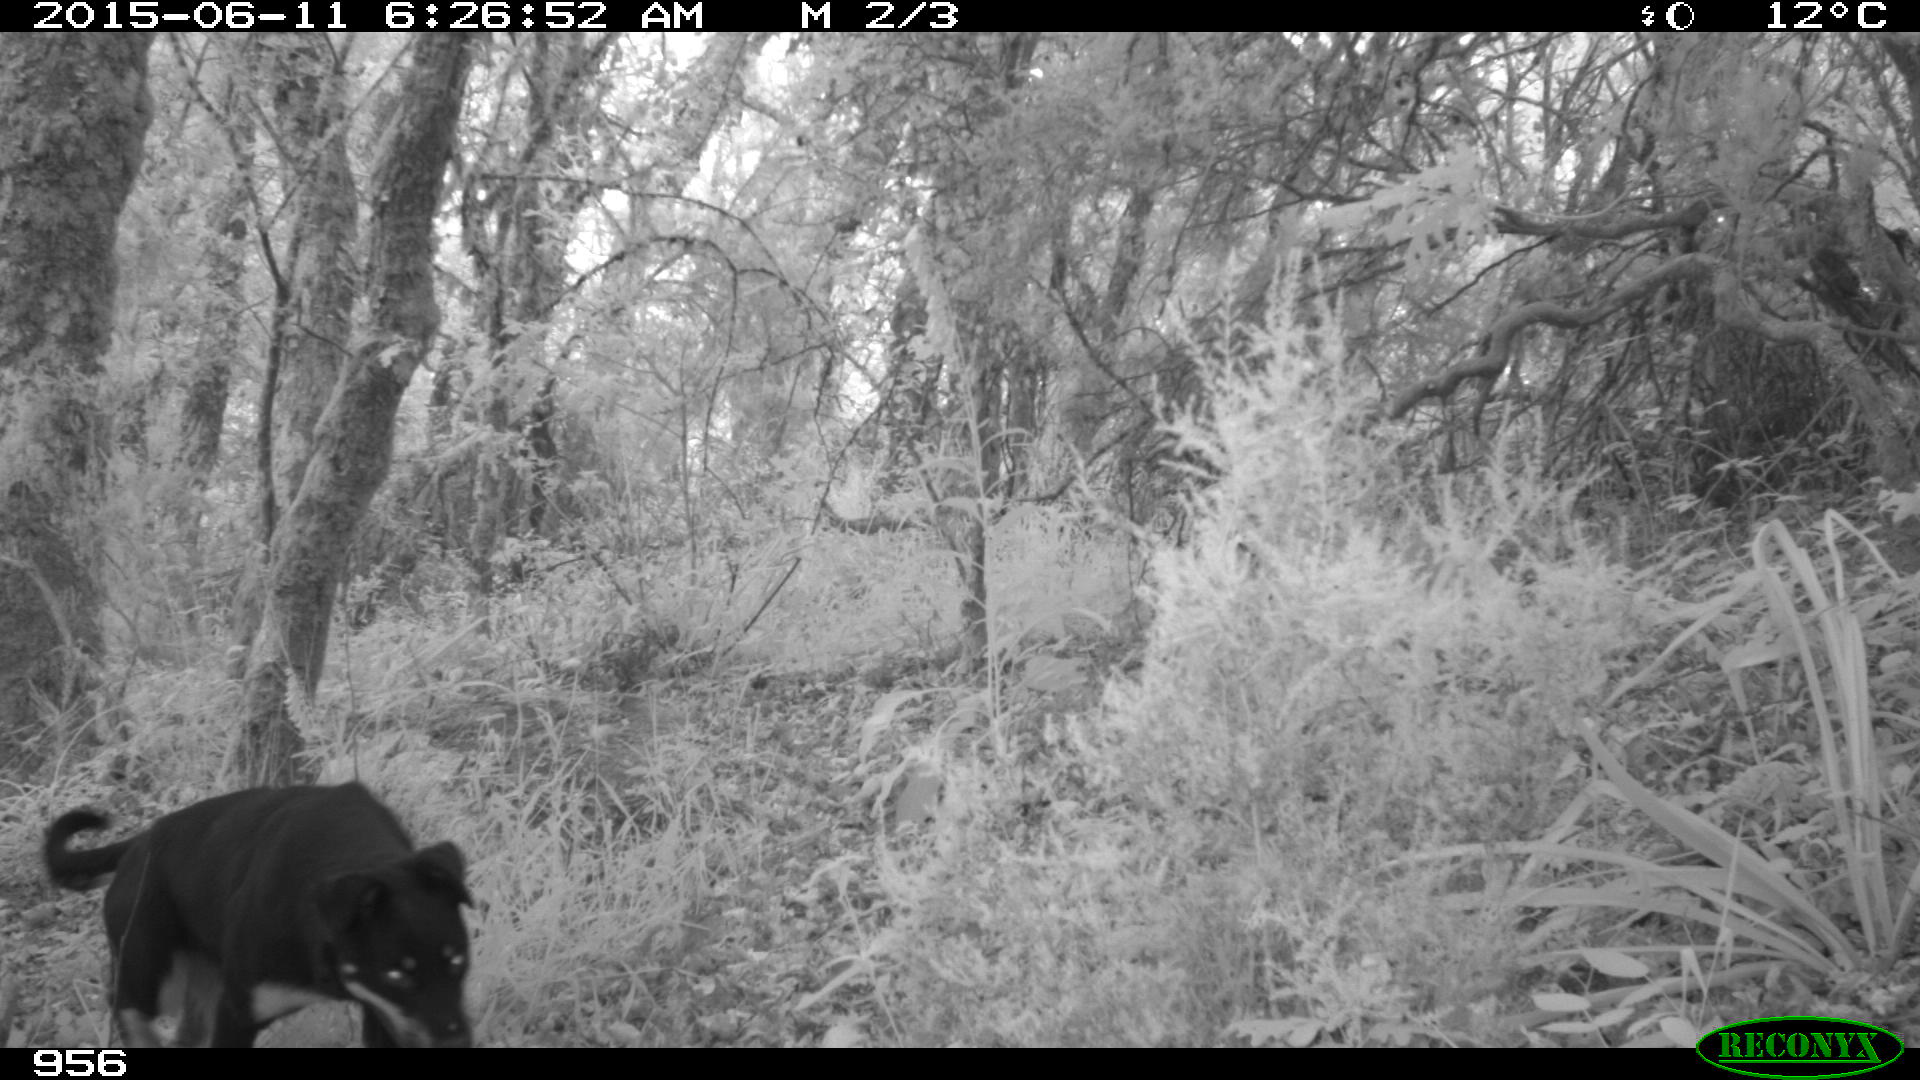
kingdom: Animalia
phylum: Chordata
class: Mammalia
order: Carnivora
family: Canidae
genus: Canis
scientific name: Canis lupus
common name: Gray wolf
